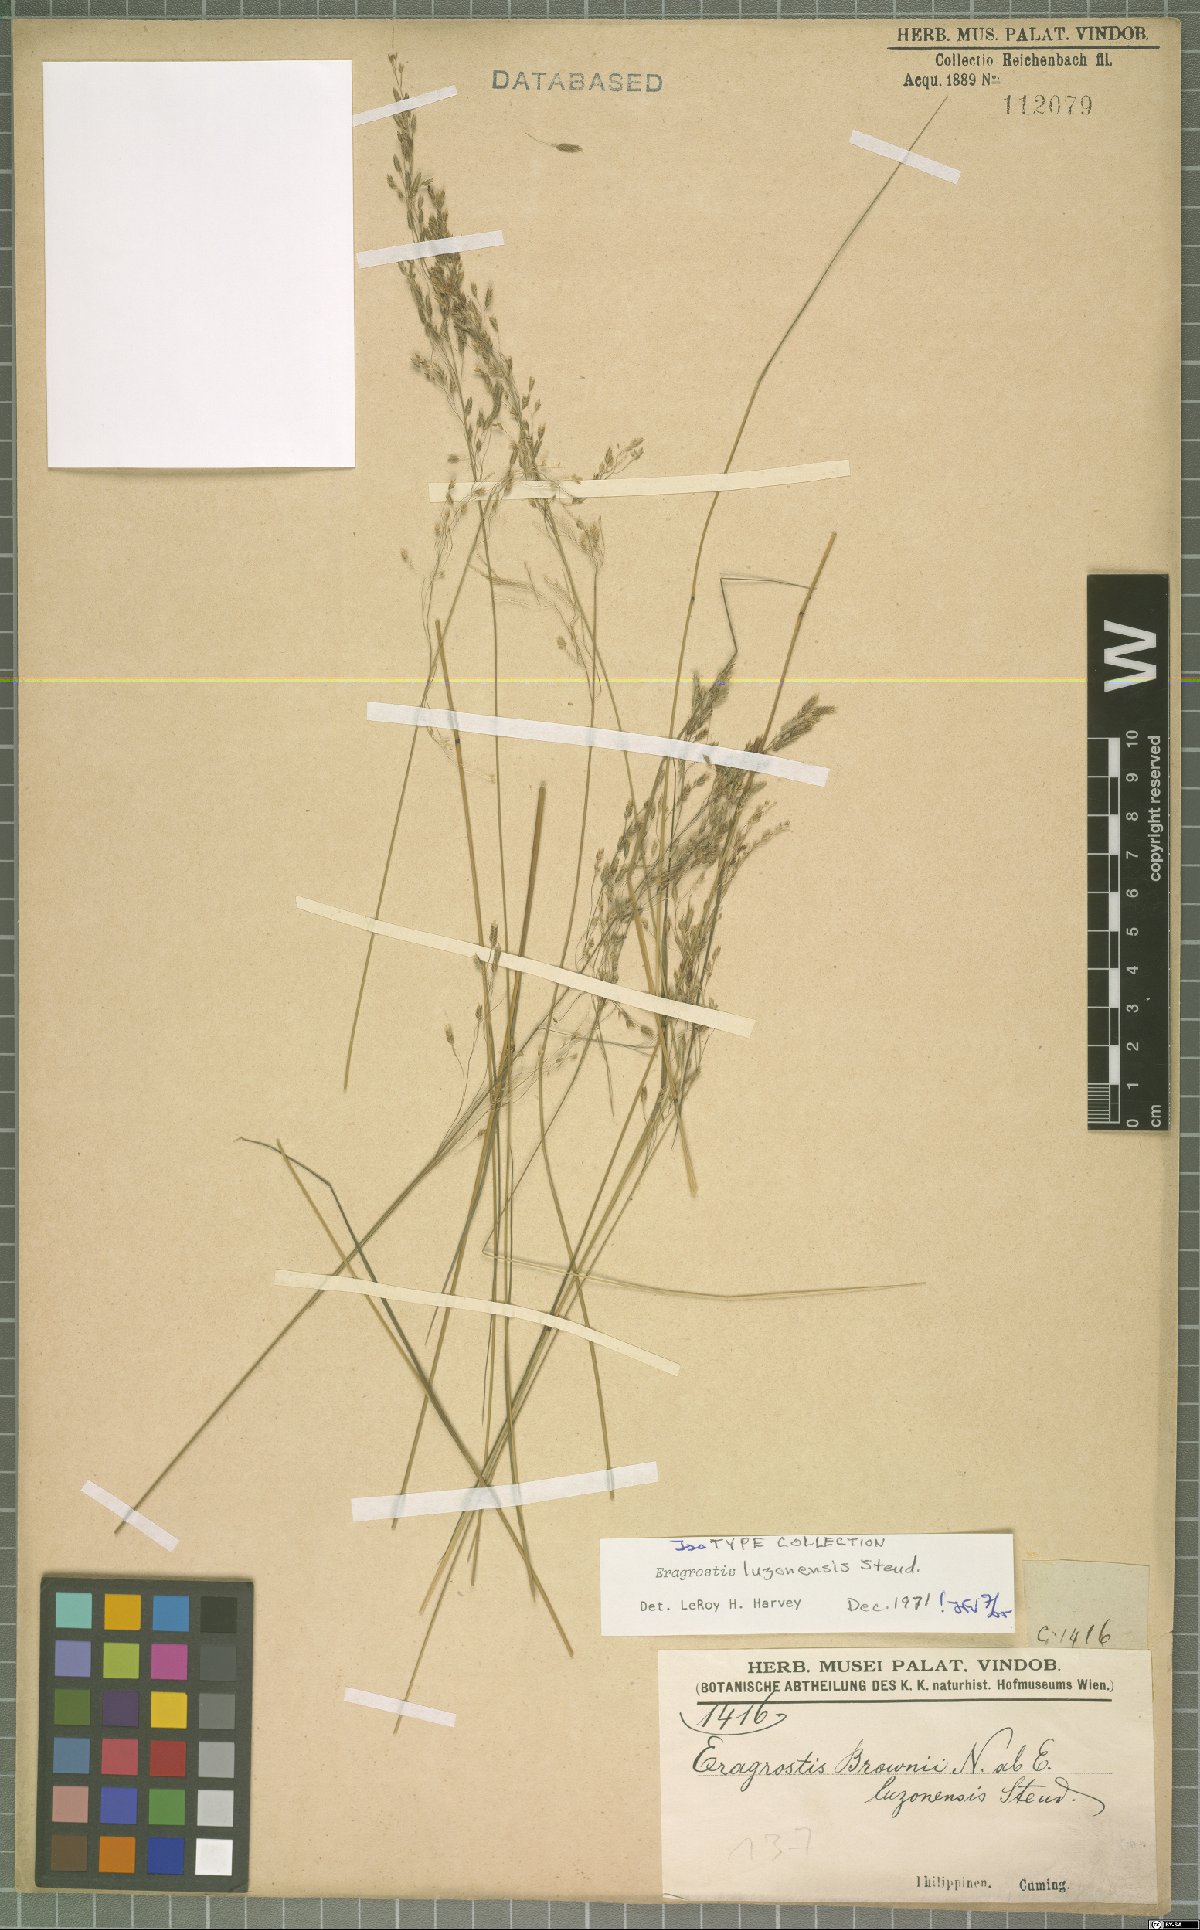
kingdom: Plantae
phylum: Tracheophyta
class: Liliopsida
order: Poales
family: Poaceae
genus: Eragrostis
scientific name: Eragrostis atrovirens
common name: Thalia lovegrass
